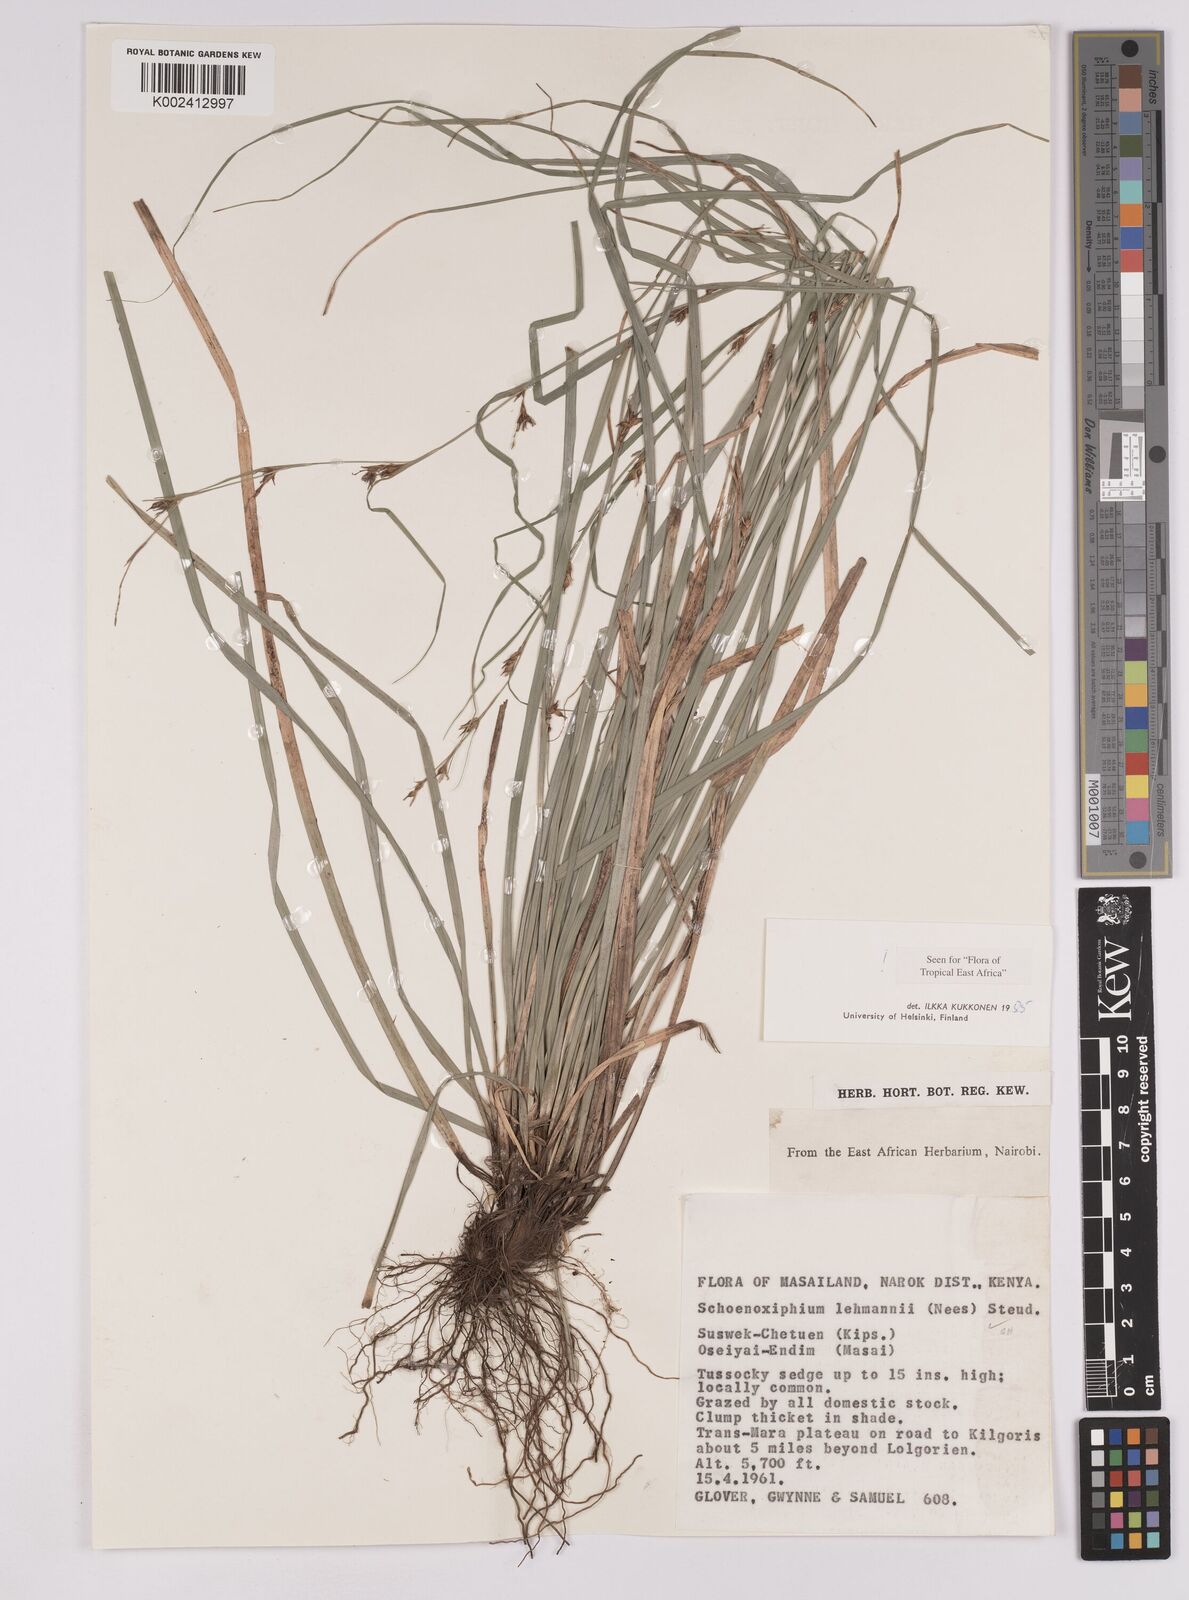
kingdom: Plantae
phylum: Tracheophyta
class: Liliopsida
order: Poales
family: Cyperaceae
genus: Carex
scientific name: Carex uhligii
